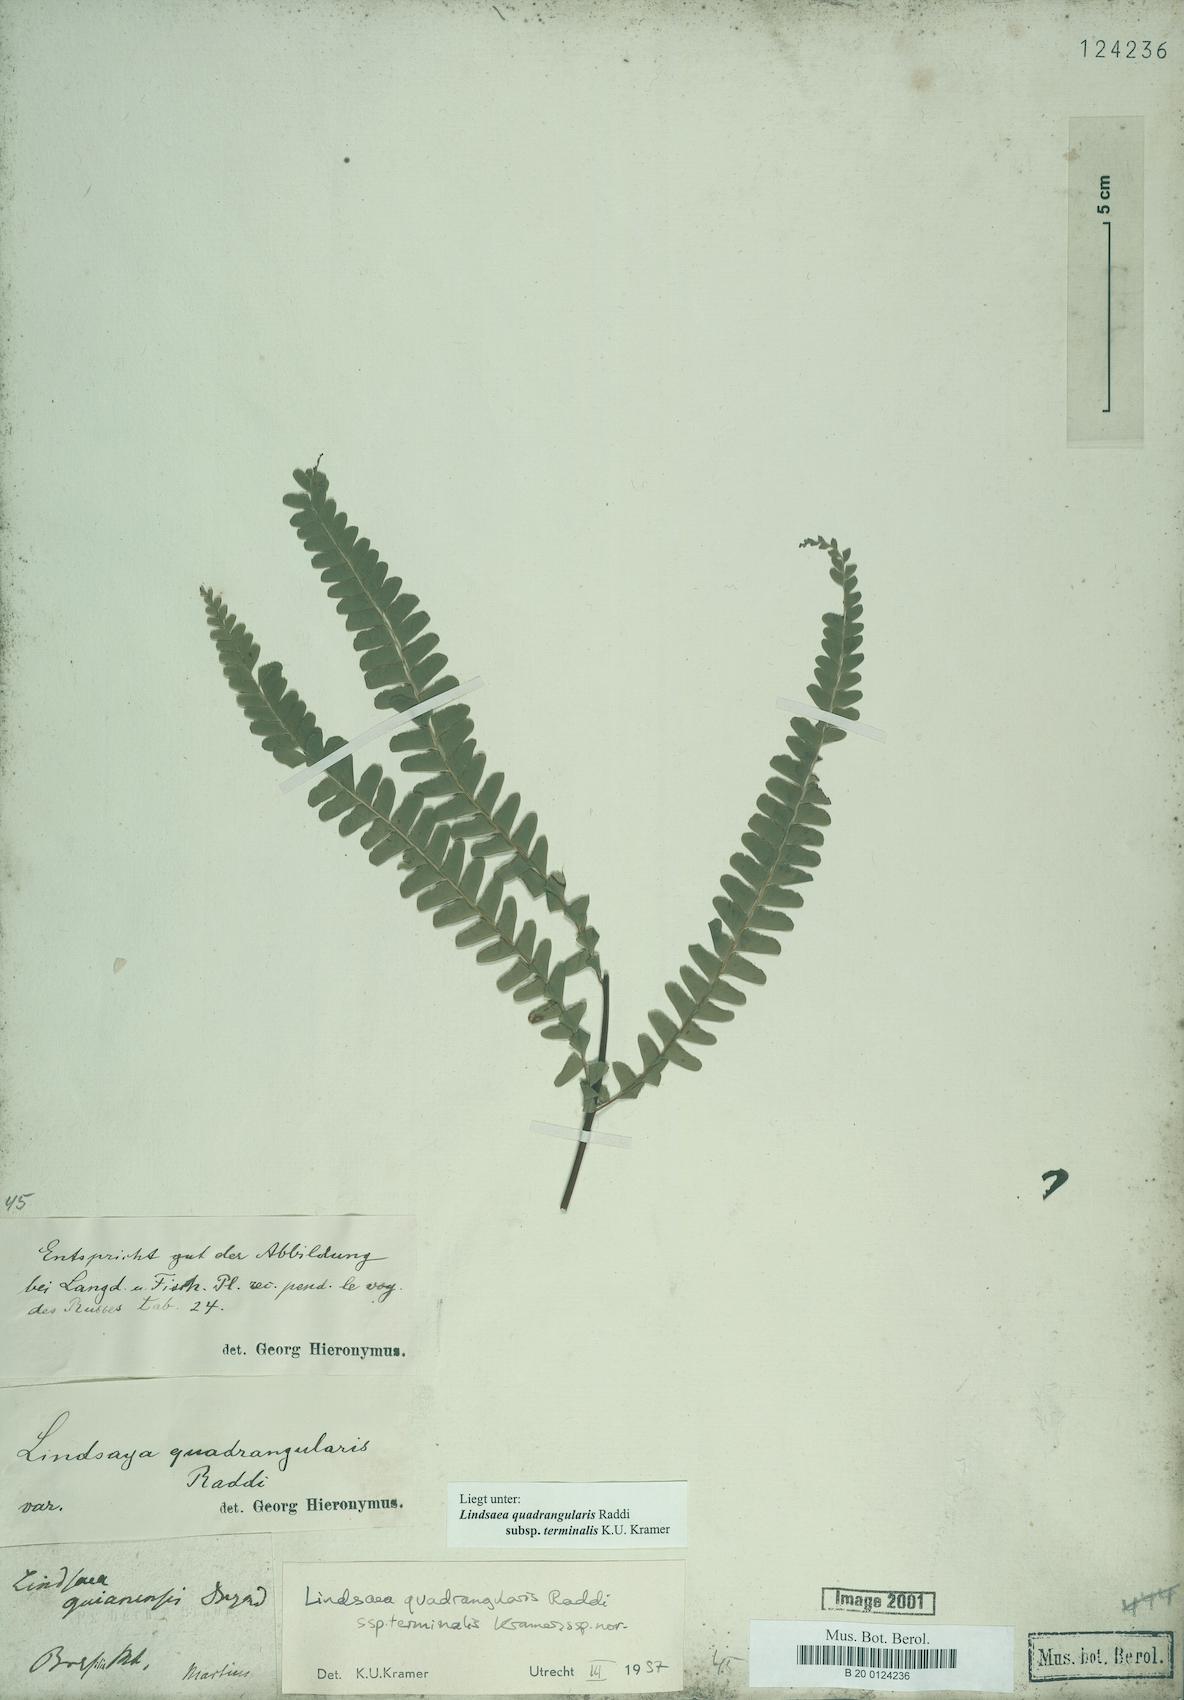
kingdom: Plantae
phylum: Tracheophyta
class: Polypodiopsida
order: Polypodiales
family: Lindsaeaceae
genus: Lindsaea
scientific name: Lindsaea terminalis
